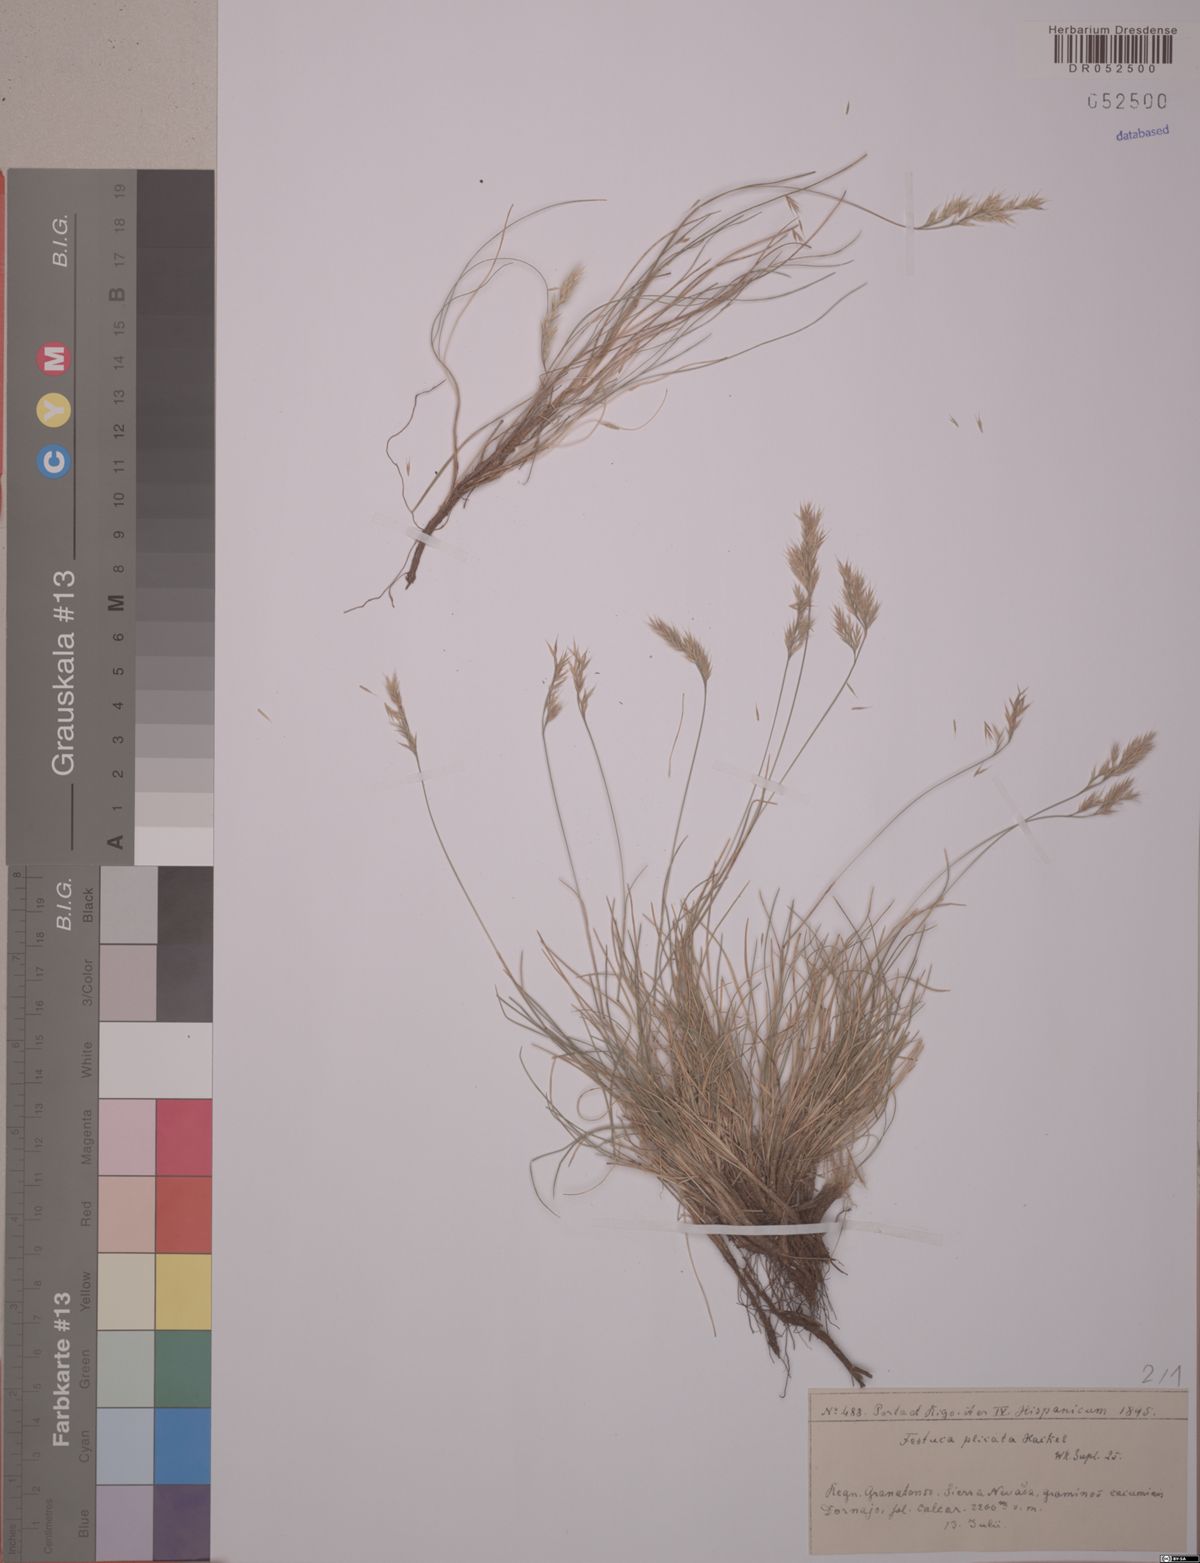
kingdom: Plantae
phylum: Tracheophyta
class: Liliopsida
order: Poales
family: Poaceae
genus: Festuca
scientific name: Festuca plicata
